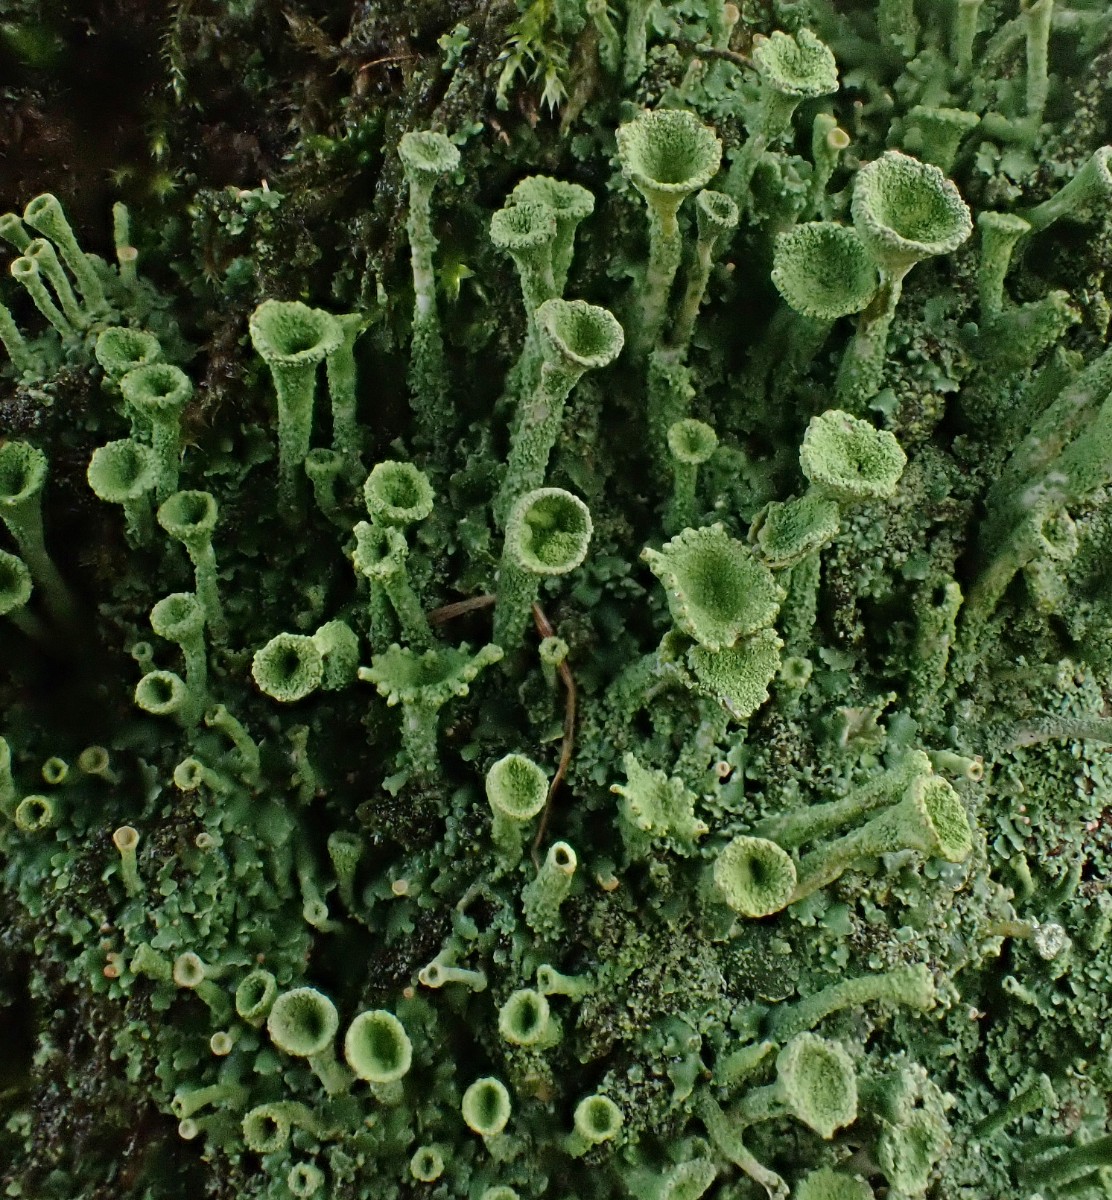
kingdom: Fungi
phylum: Ascomycota
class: Lecanoromycetes
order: Lecanorales
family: Cladoniaceae
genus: Cladonia
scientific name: Cladonia
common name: brungrøn bægerlav
